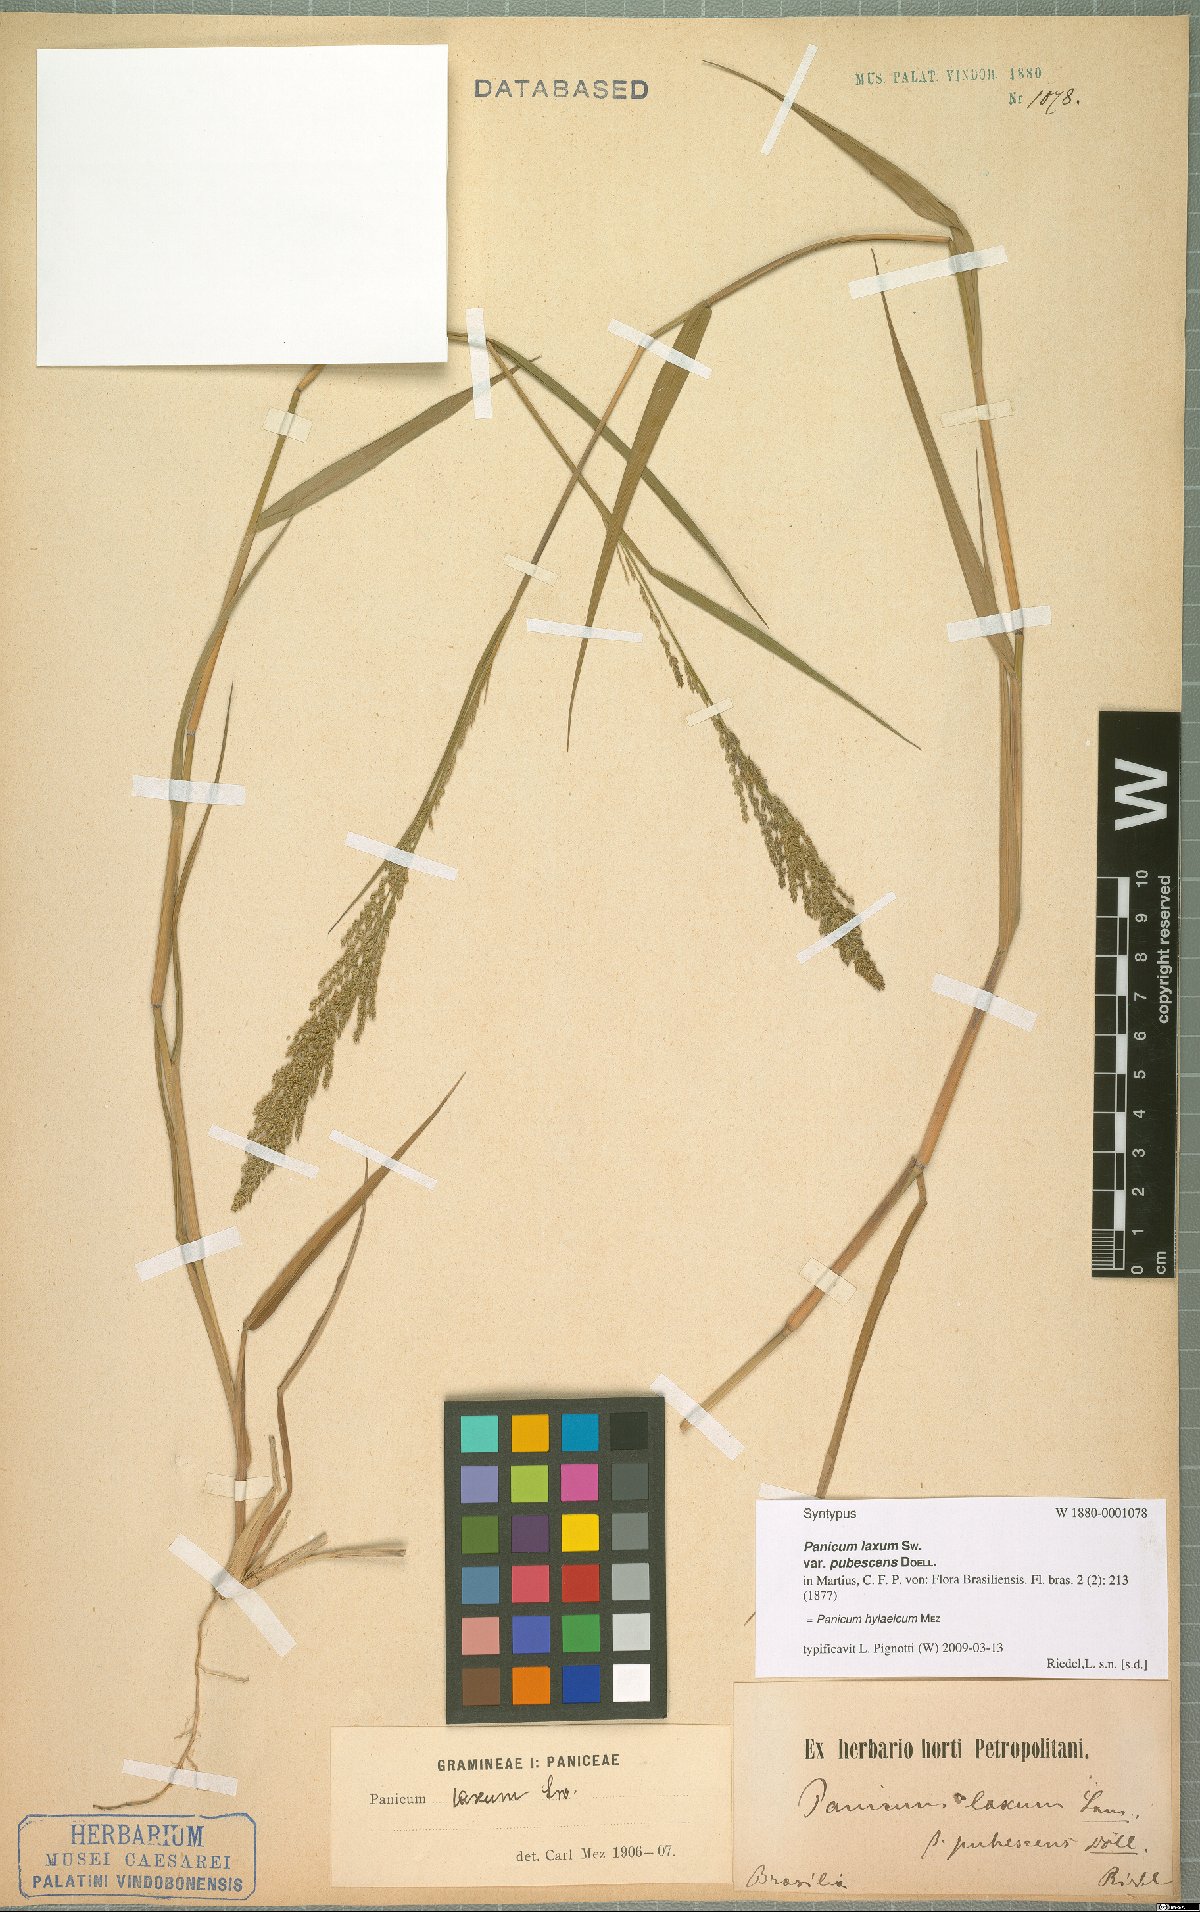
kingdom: Plantae
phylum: Tracheophyta
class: Liliopsida
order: Poales
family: Poaceae
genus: Rugoloa
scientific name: Rugoloa hylaeica
